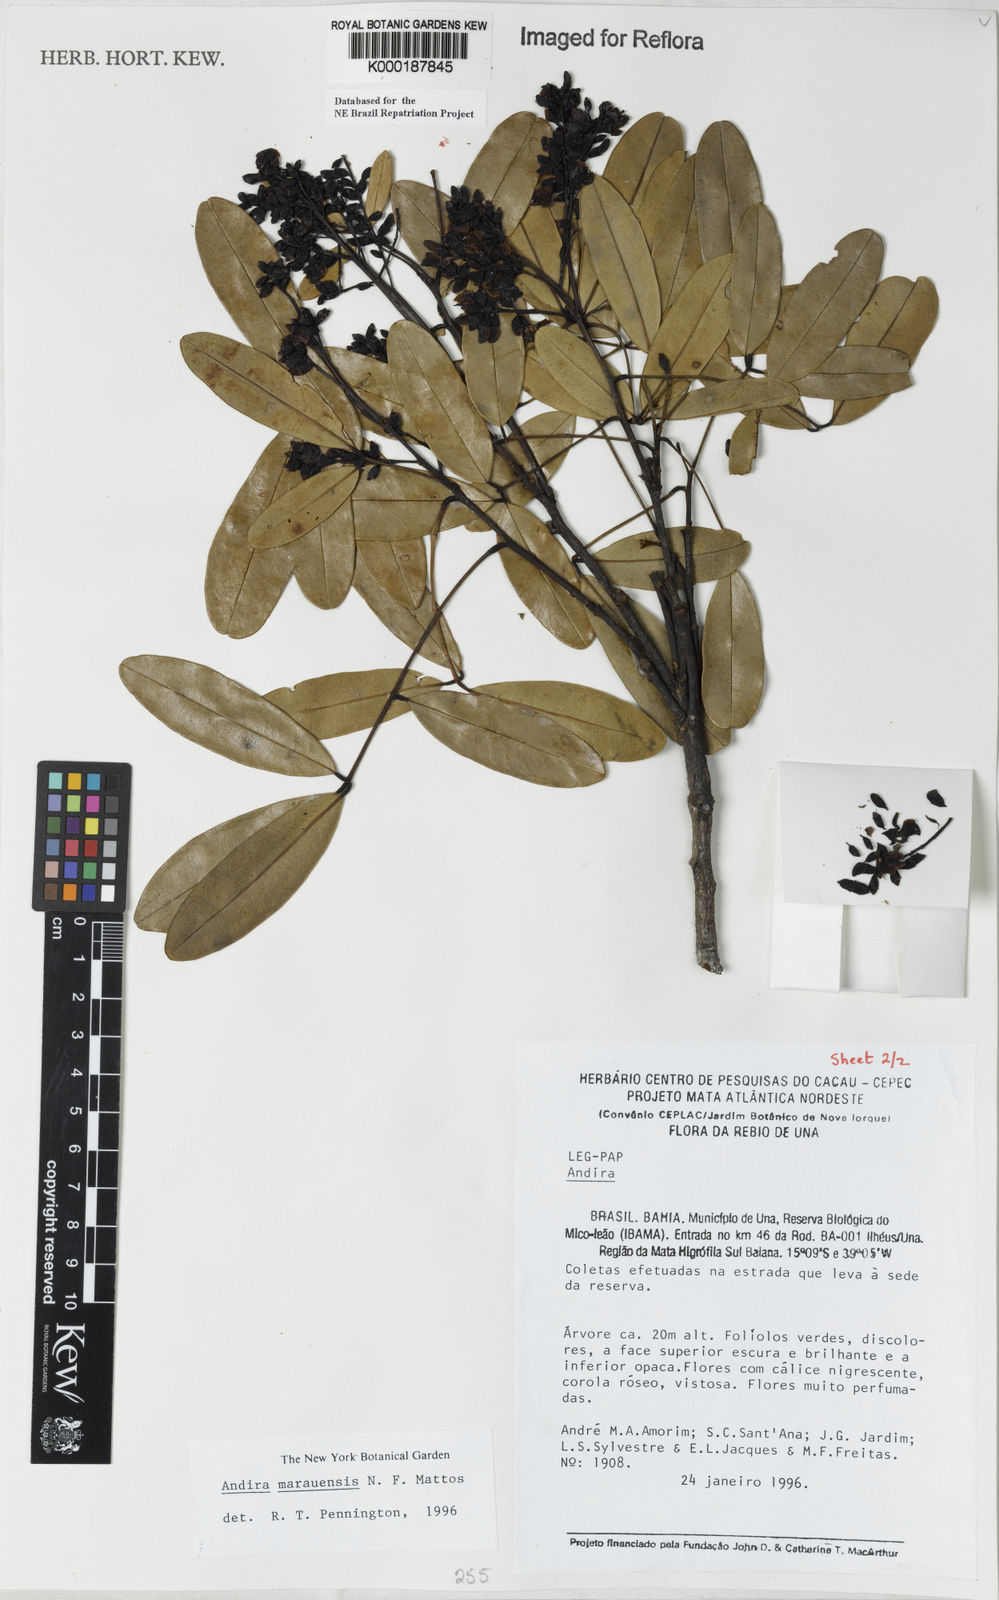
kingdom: Plantae
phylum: Tracheophyta
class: Magnoliopsida
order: Fabales
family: Fabaceae
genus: Andira
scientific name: Andira marauensis
